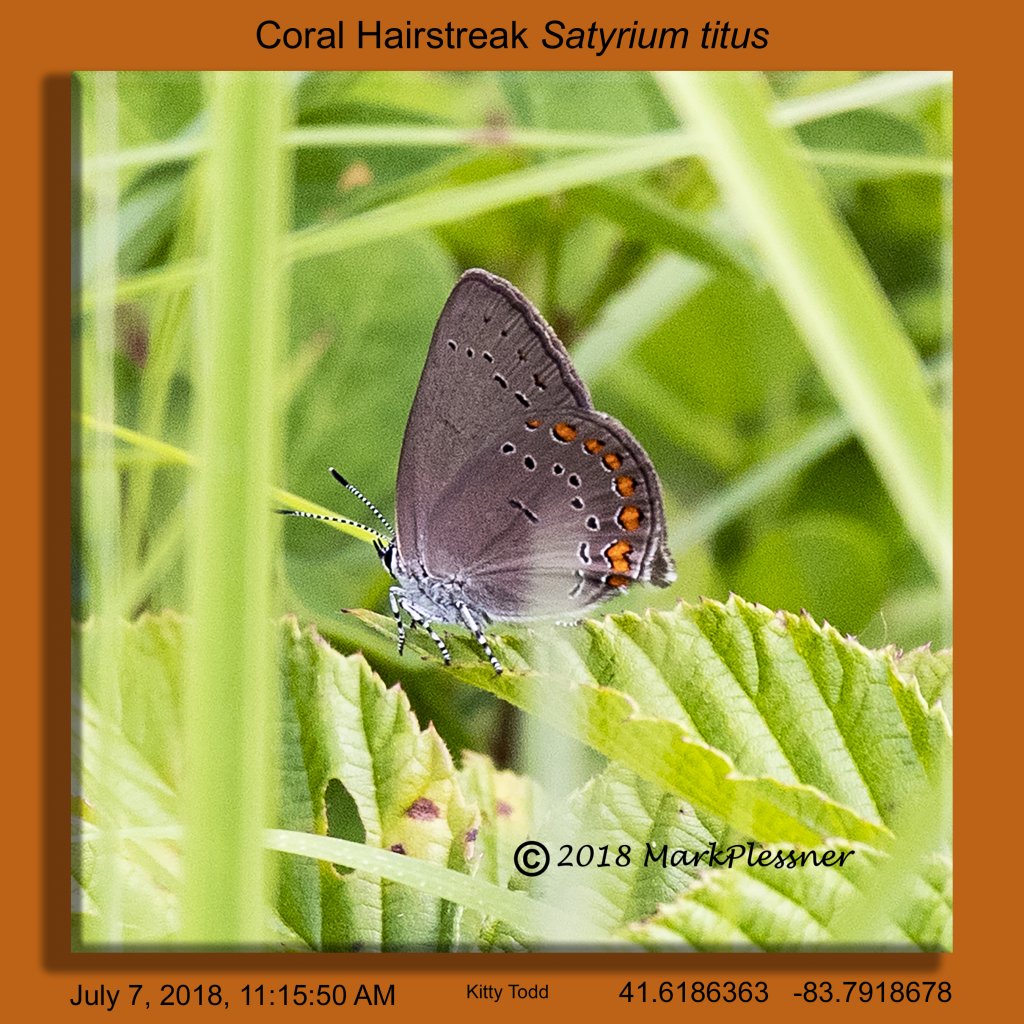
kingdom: Animalia
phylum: Arthropoda
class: Insecta
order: Lepidoptera
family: Lycaenidae
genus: Harkenclenus
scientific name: Harkenclenus titus
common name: Coral Hairstreak
